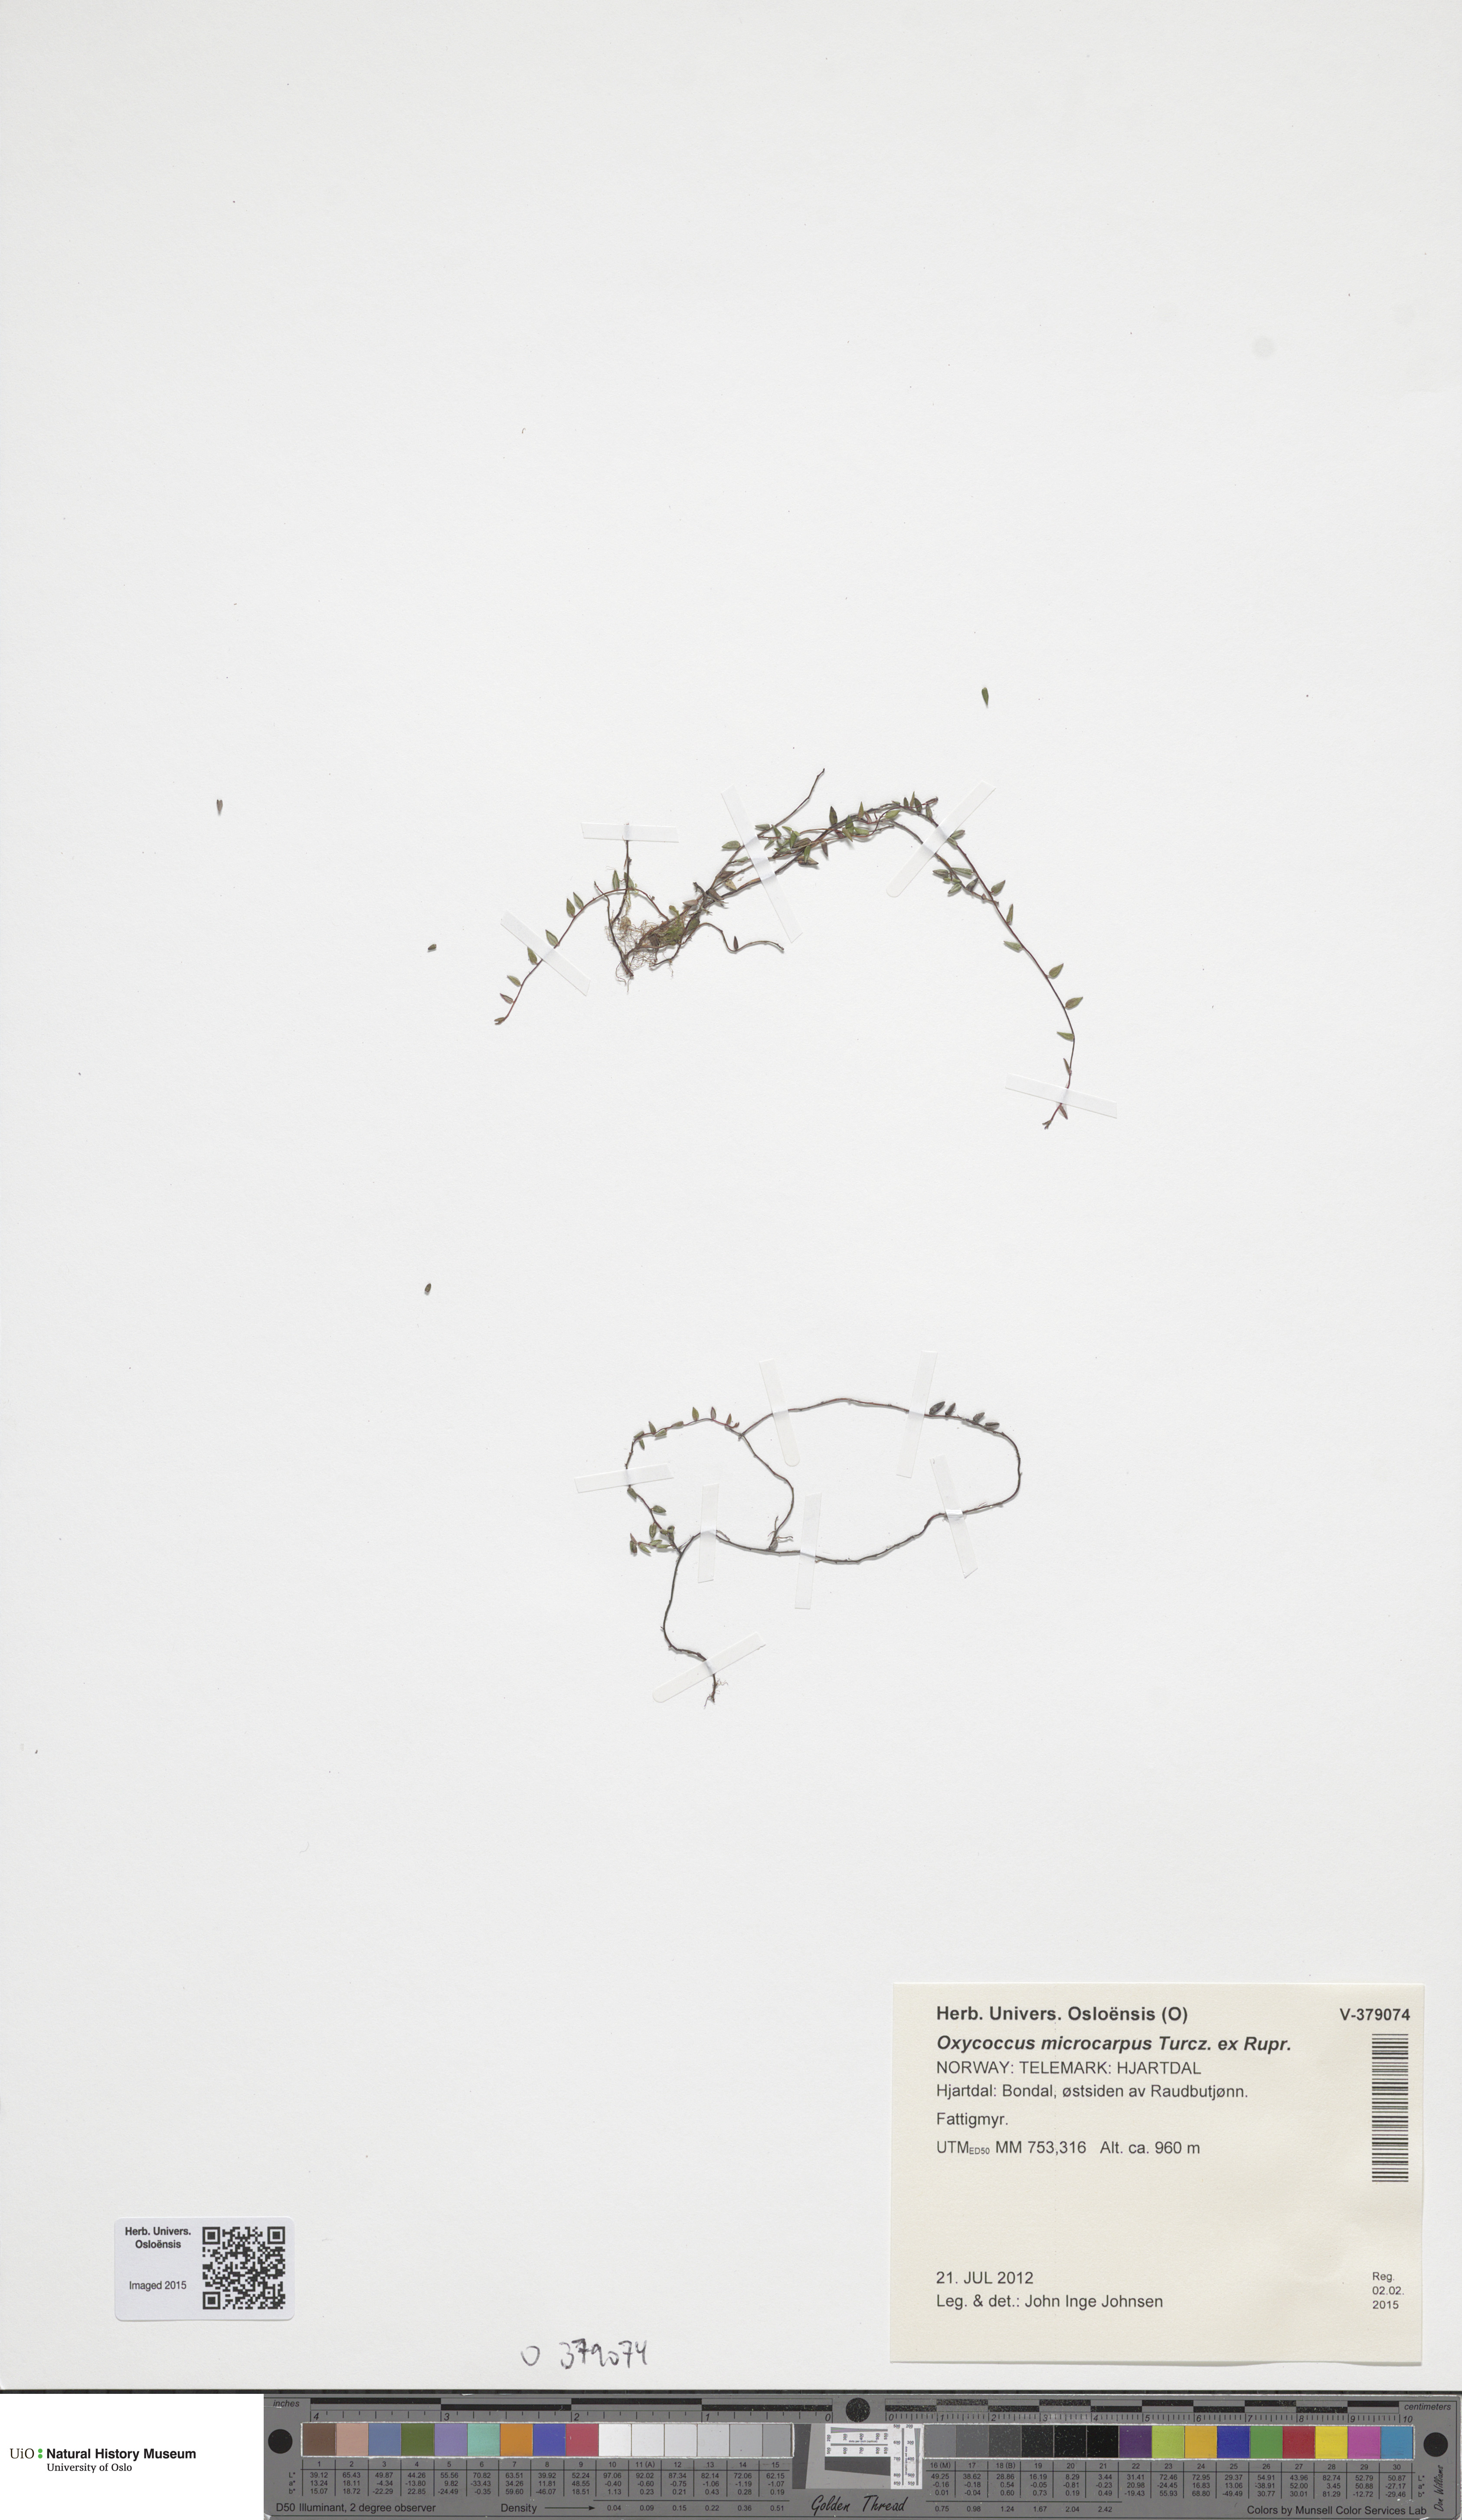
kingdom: Plantae
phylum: Tracheophyta
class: Magnoliopsida
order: Ericales
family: Ericaceae
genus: Vaccinium
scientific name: Vaccinium microcarpum
